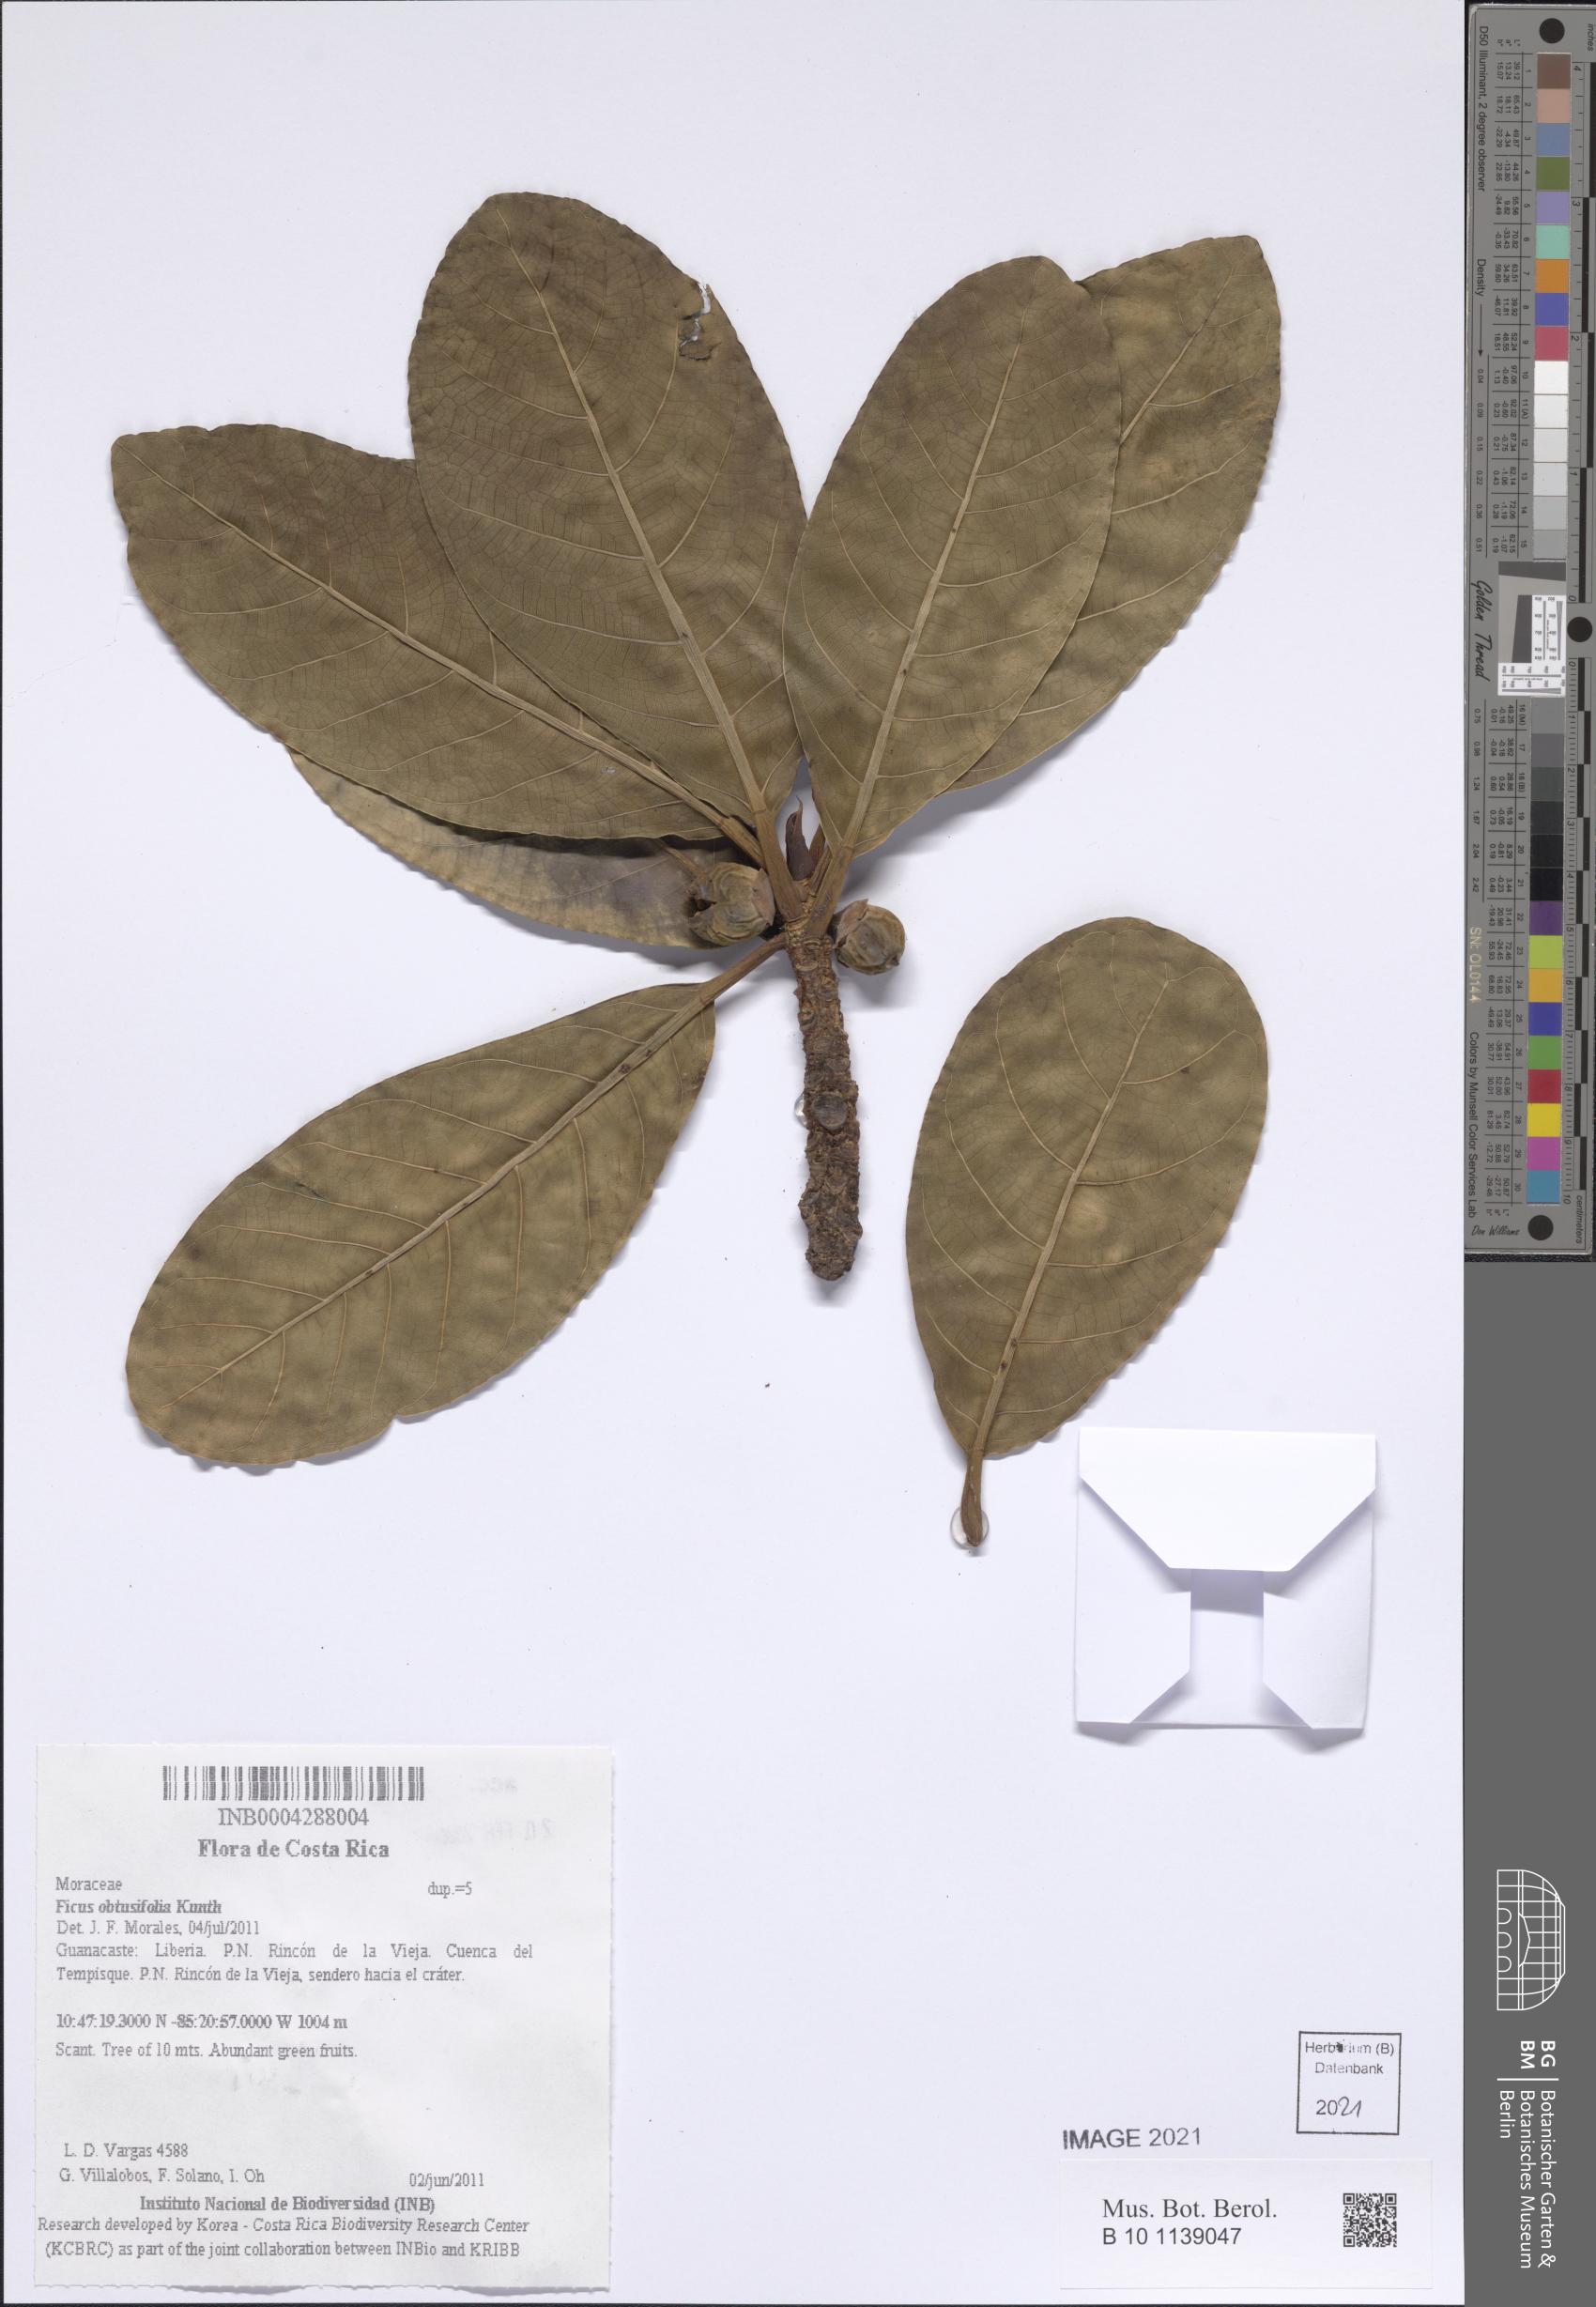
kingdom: Plantae
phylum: Tracheophyta
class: Magnoliopsida
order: Rosales
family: Moraceae
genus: Ficus
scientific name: Ficus obtusifolia
